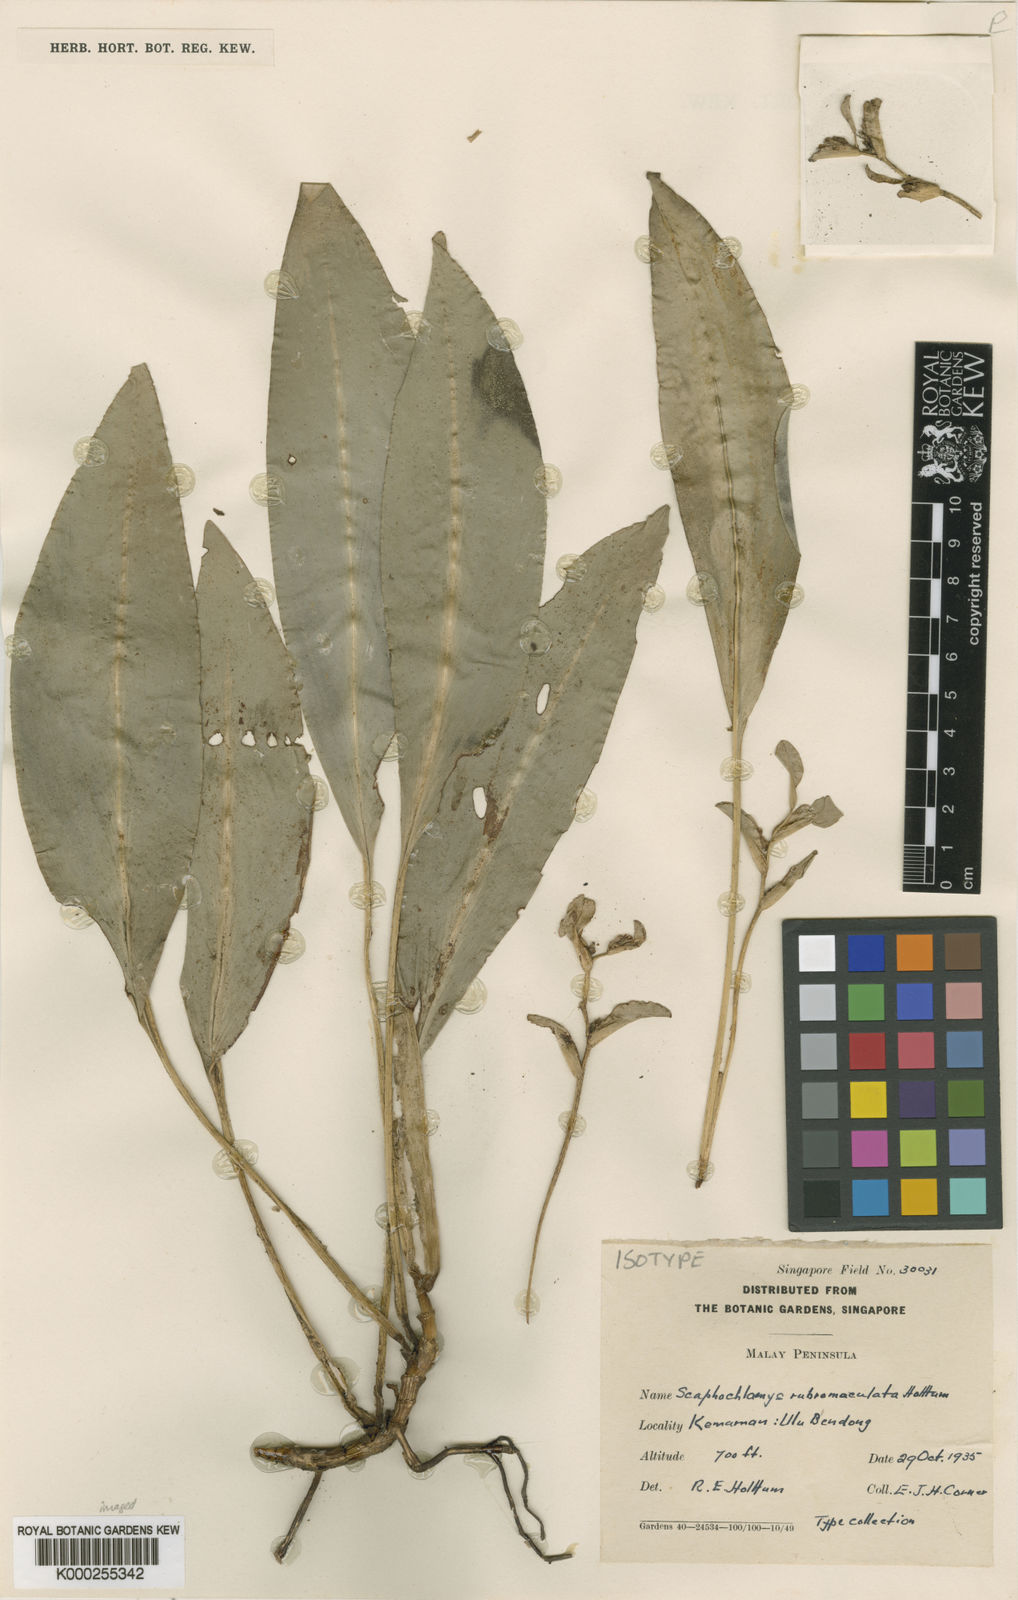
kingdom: Plantae
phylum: Tracheophyta
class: Liliopsida
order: Zingiberales
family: Zingiberaceae
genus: Scaphochlamys
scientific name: Scaphochlamys
